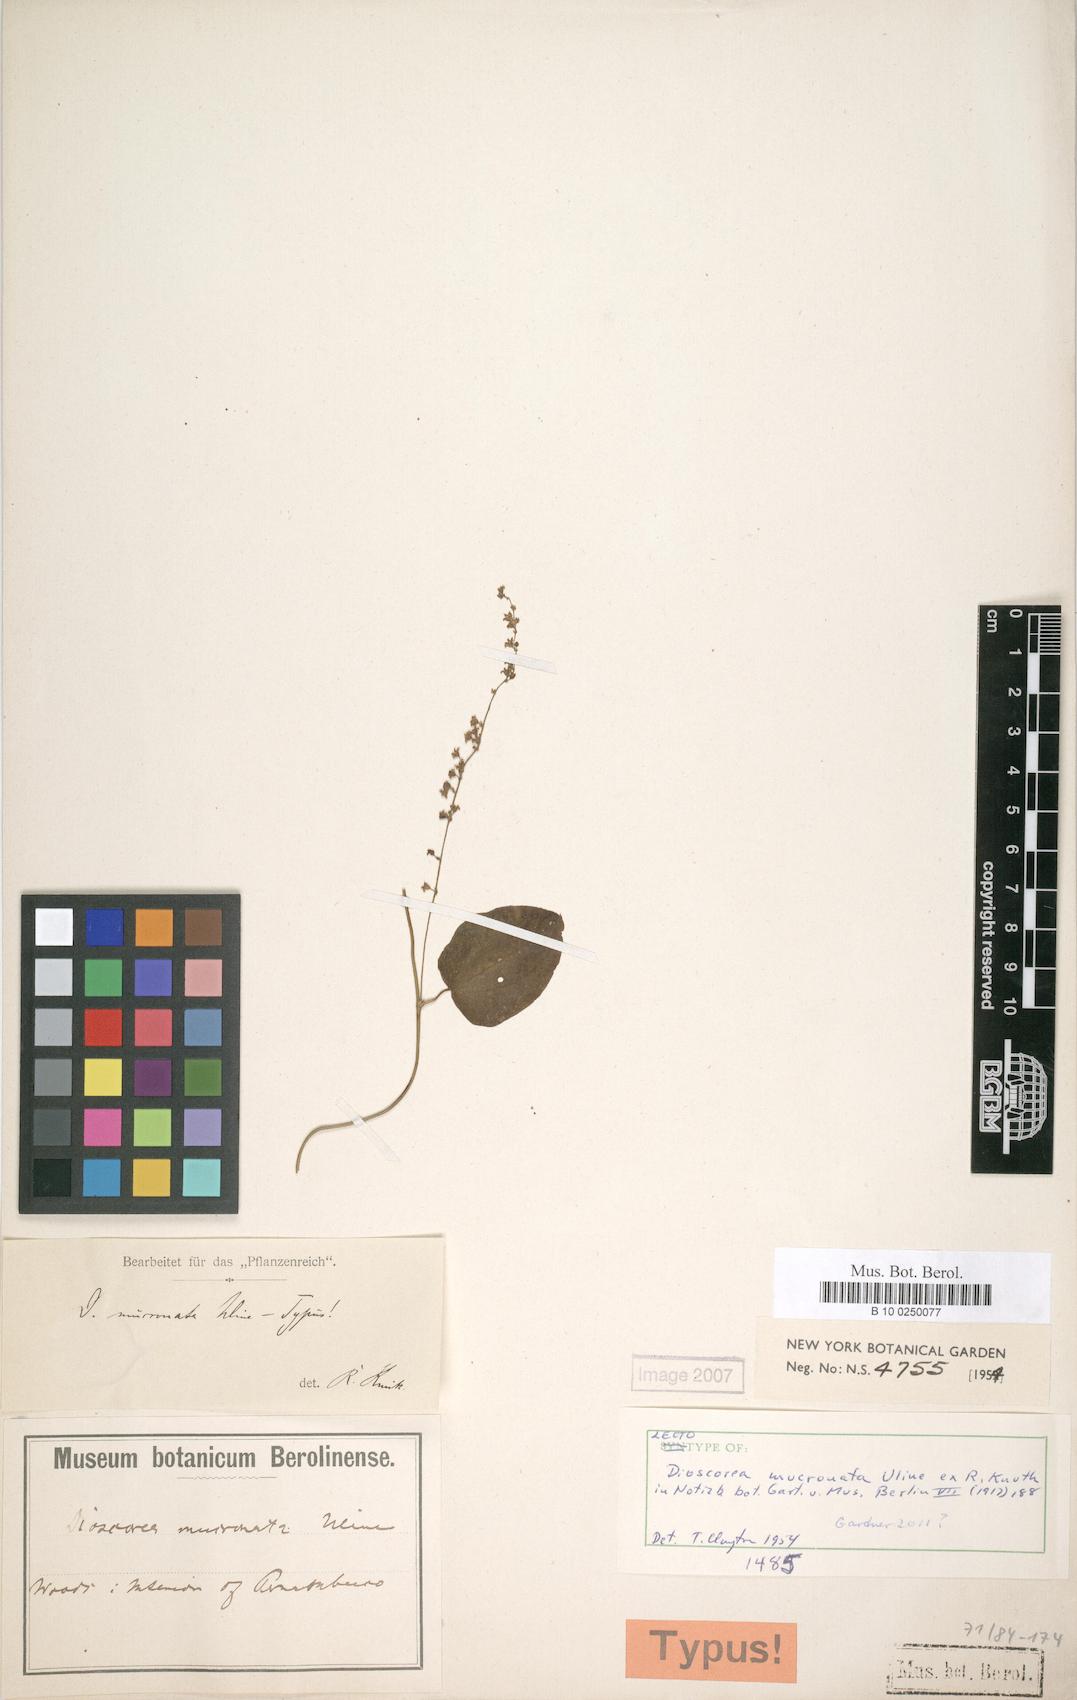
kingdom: Plantae
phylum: Tracheophyta
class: Liliopsida
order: Dioscoreales
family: Dioscoreaceae
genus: Dioscorea
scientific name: Dioscorea mucronata
